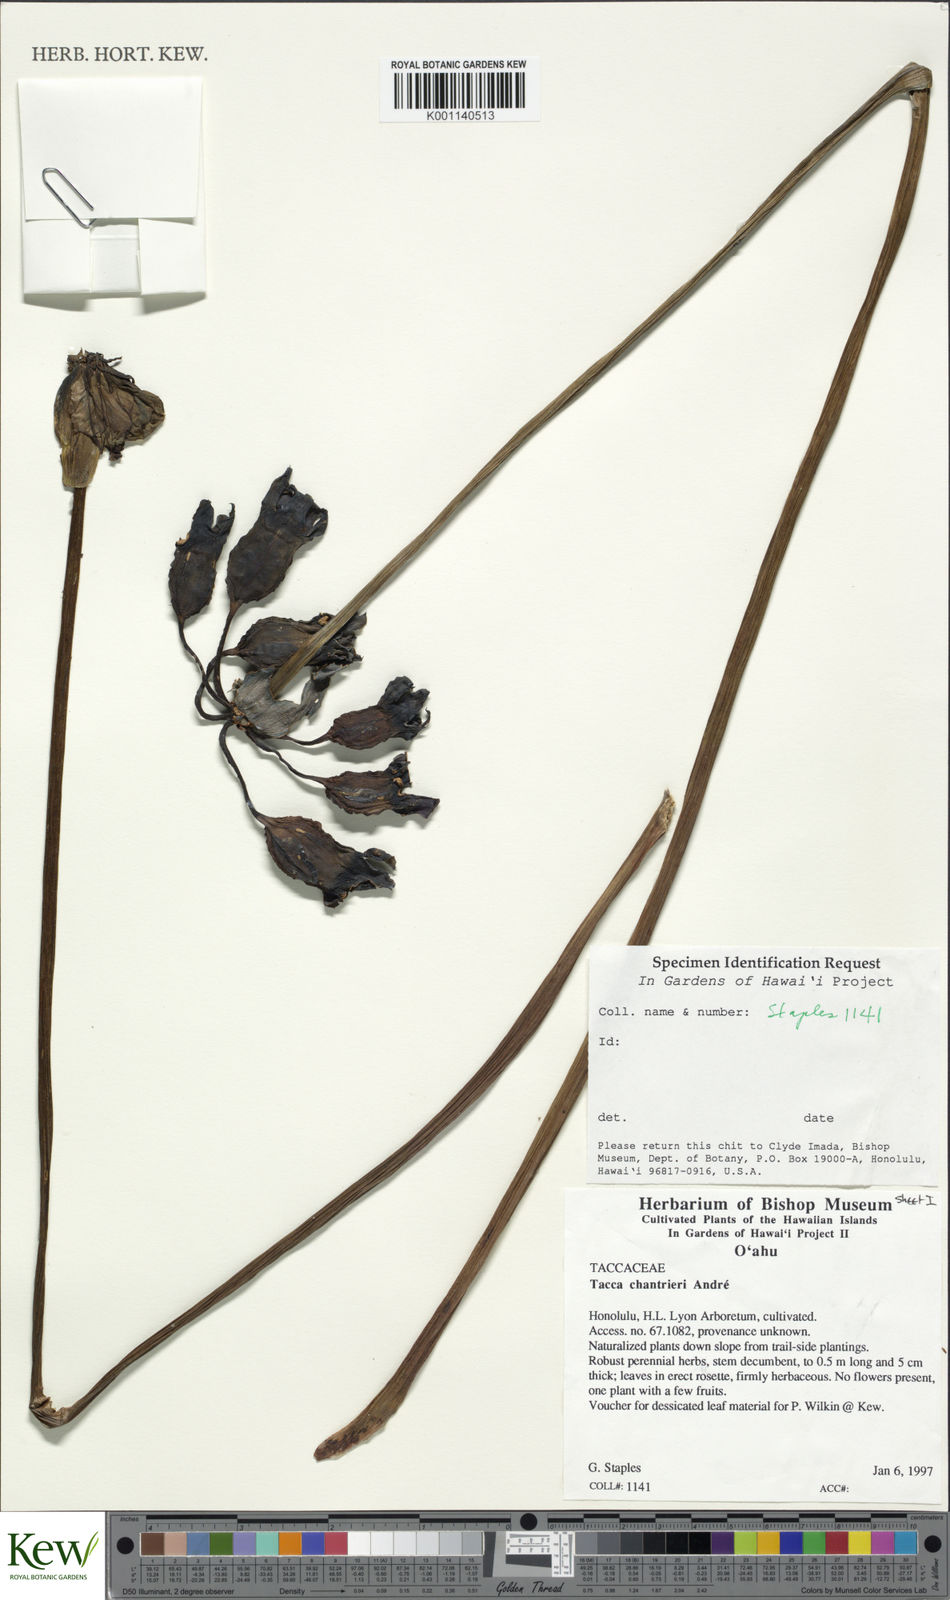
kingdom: Plantae
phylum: Tracheophyta
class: Liliopsida
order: Dioscoreales
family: Dioscoreaceae
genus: Tacca
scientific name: Tacca
